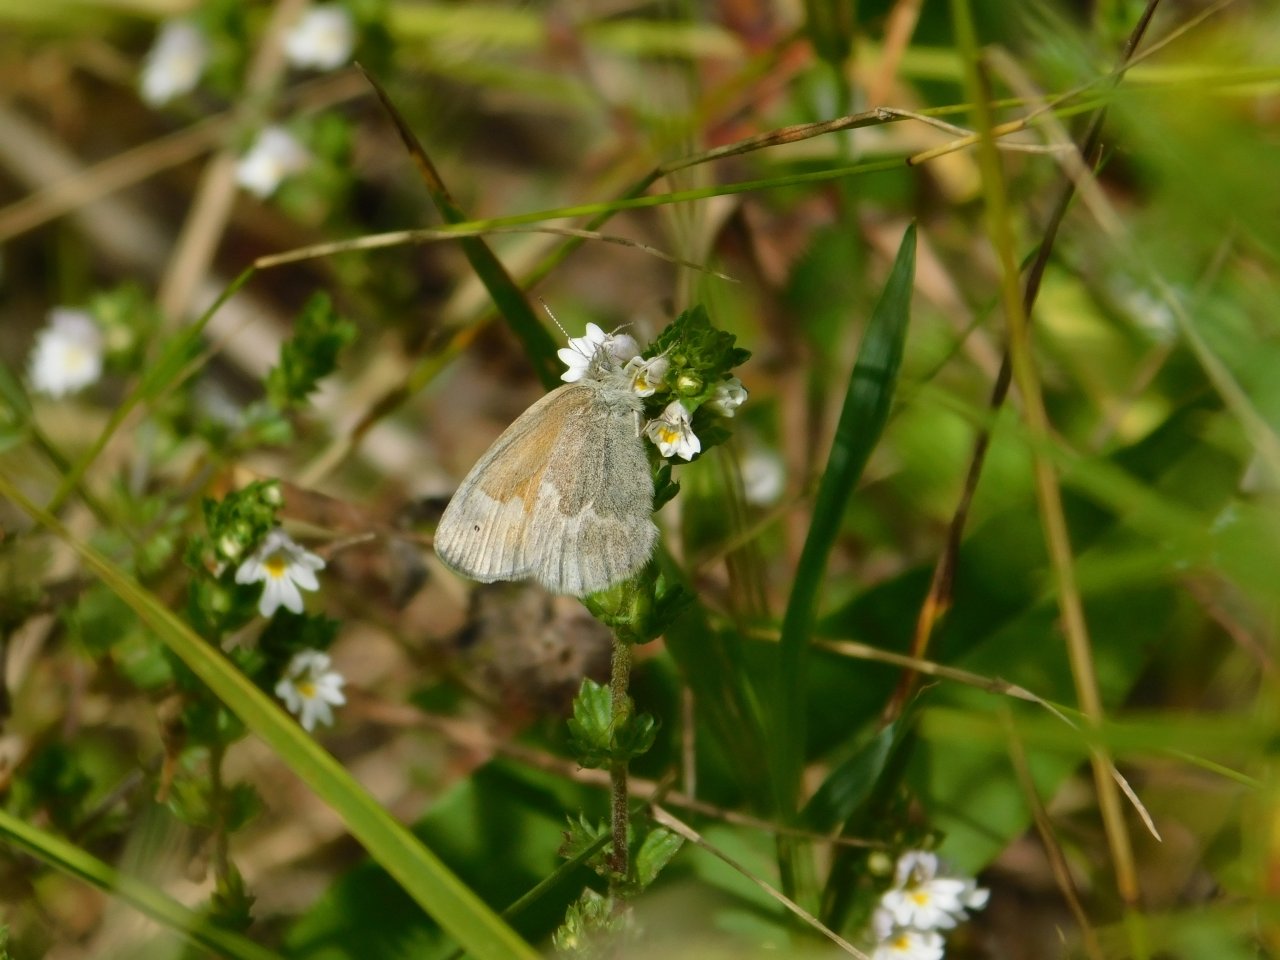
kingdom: Animalia
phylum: Arthropoda
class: Insecta
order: Lepidoptera
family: Nymphalidae
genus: Coenonympha
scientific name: Coenonympha tullia
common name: Large Heath
